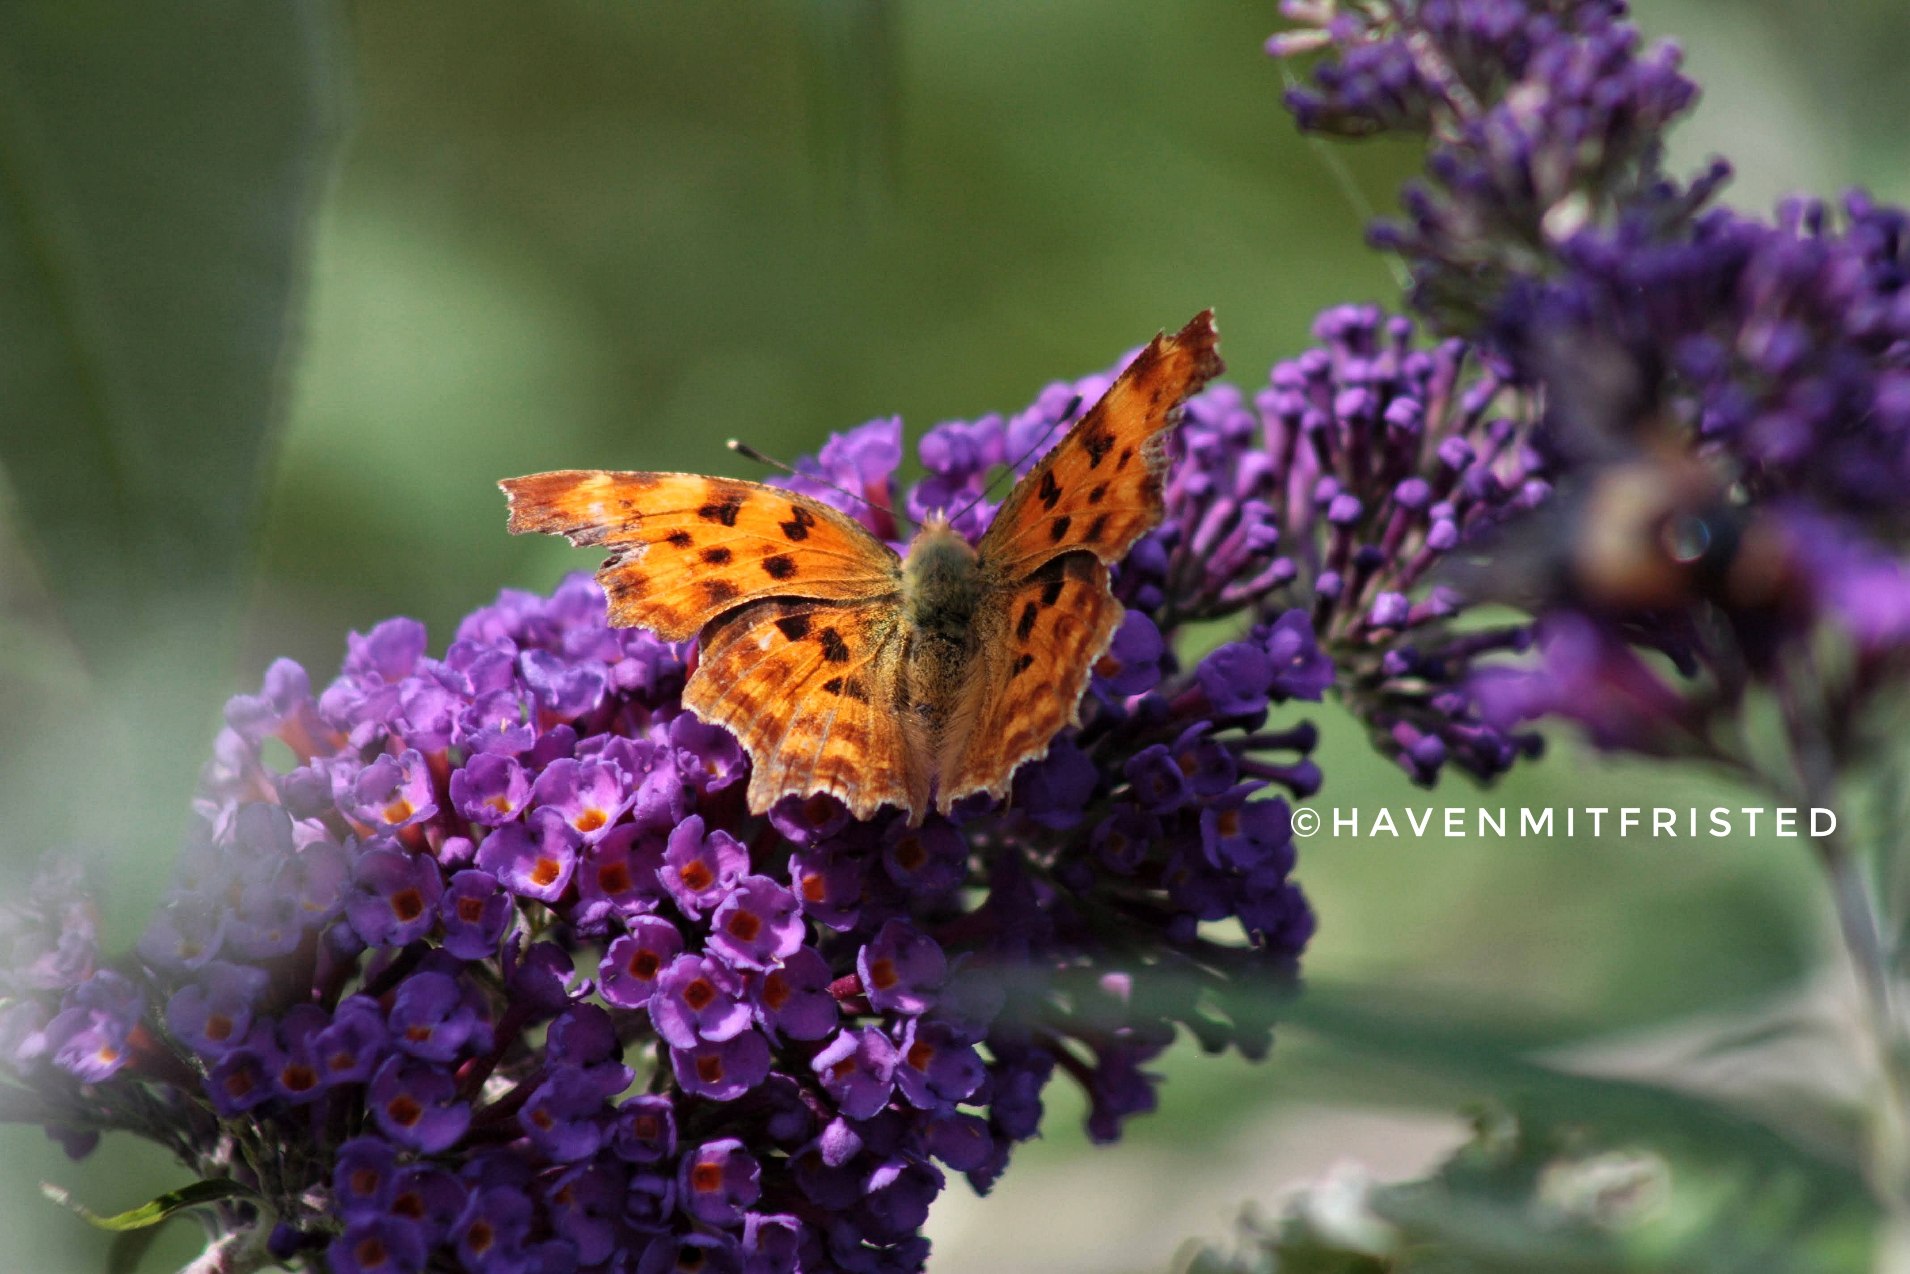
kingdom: Animalia
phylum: Arthropoda
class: Insecta
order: Lepidoptera
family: Nymphalidae
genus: Polygonia
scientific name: Polygonia c-album
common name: Det hvide C
